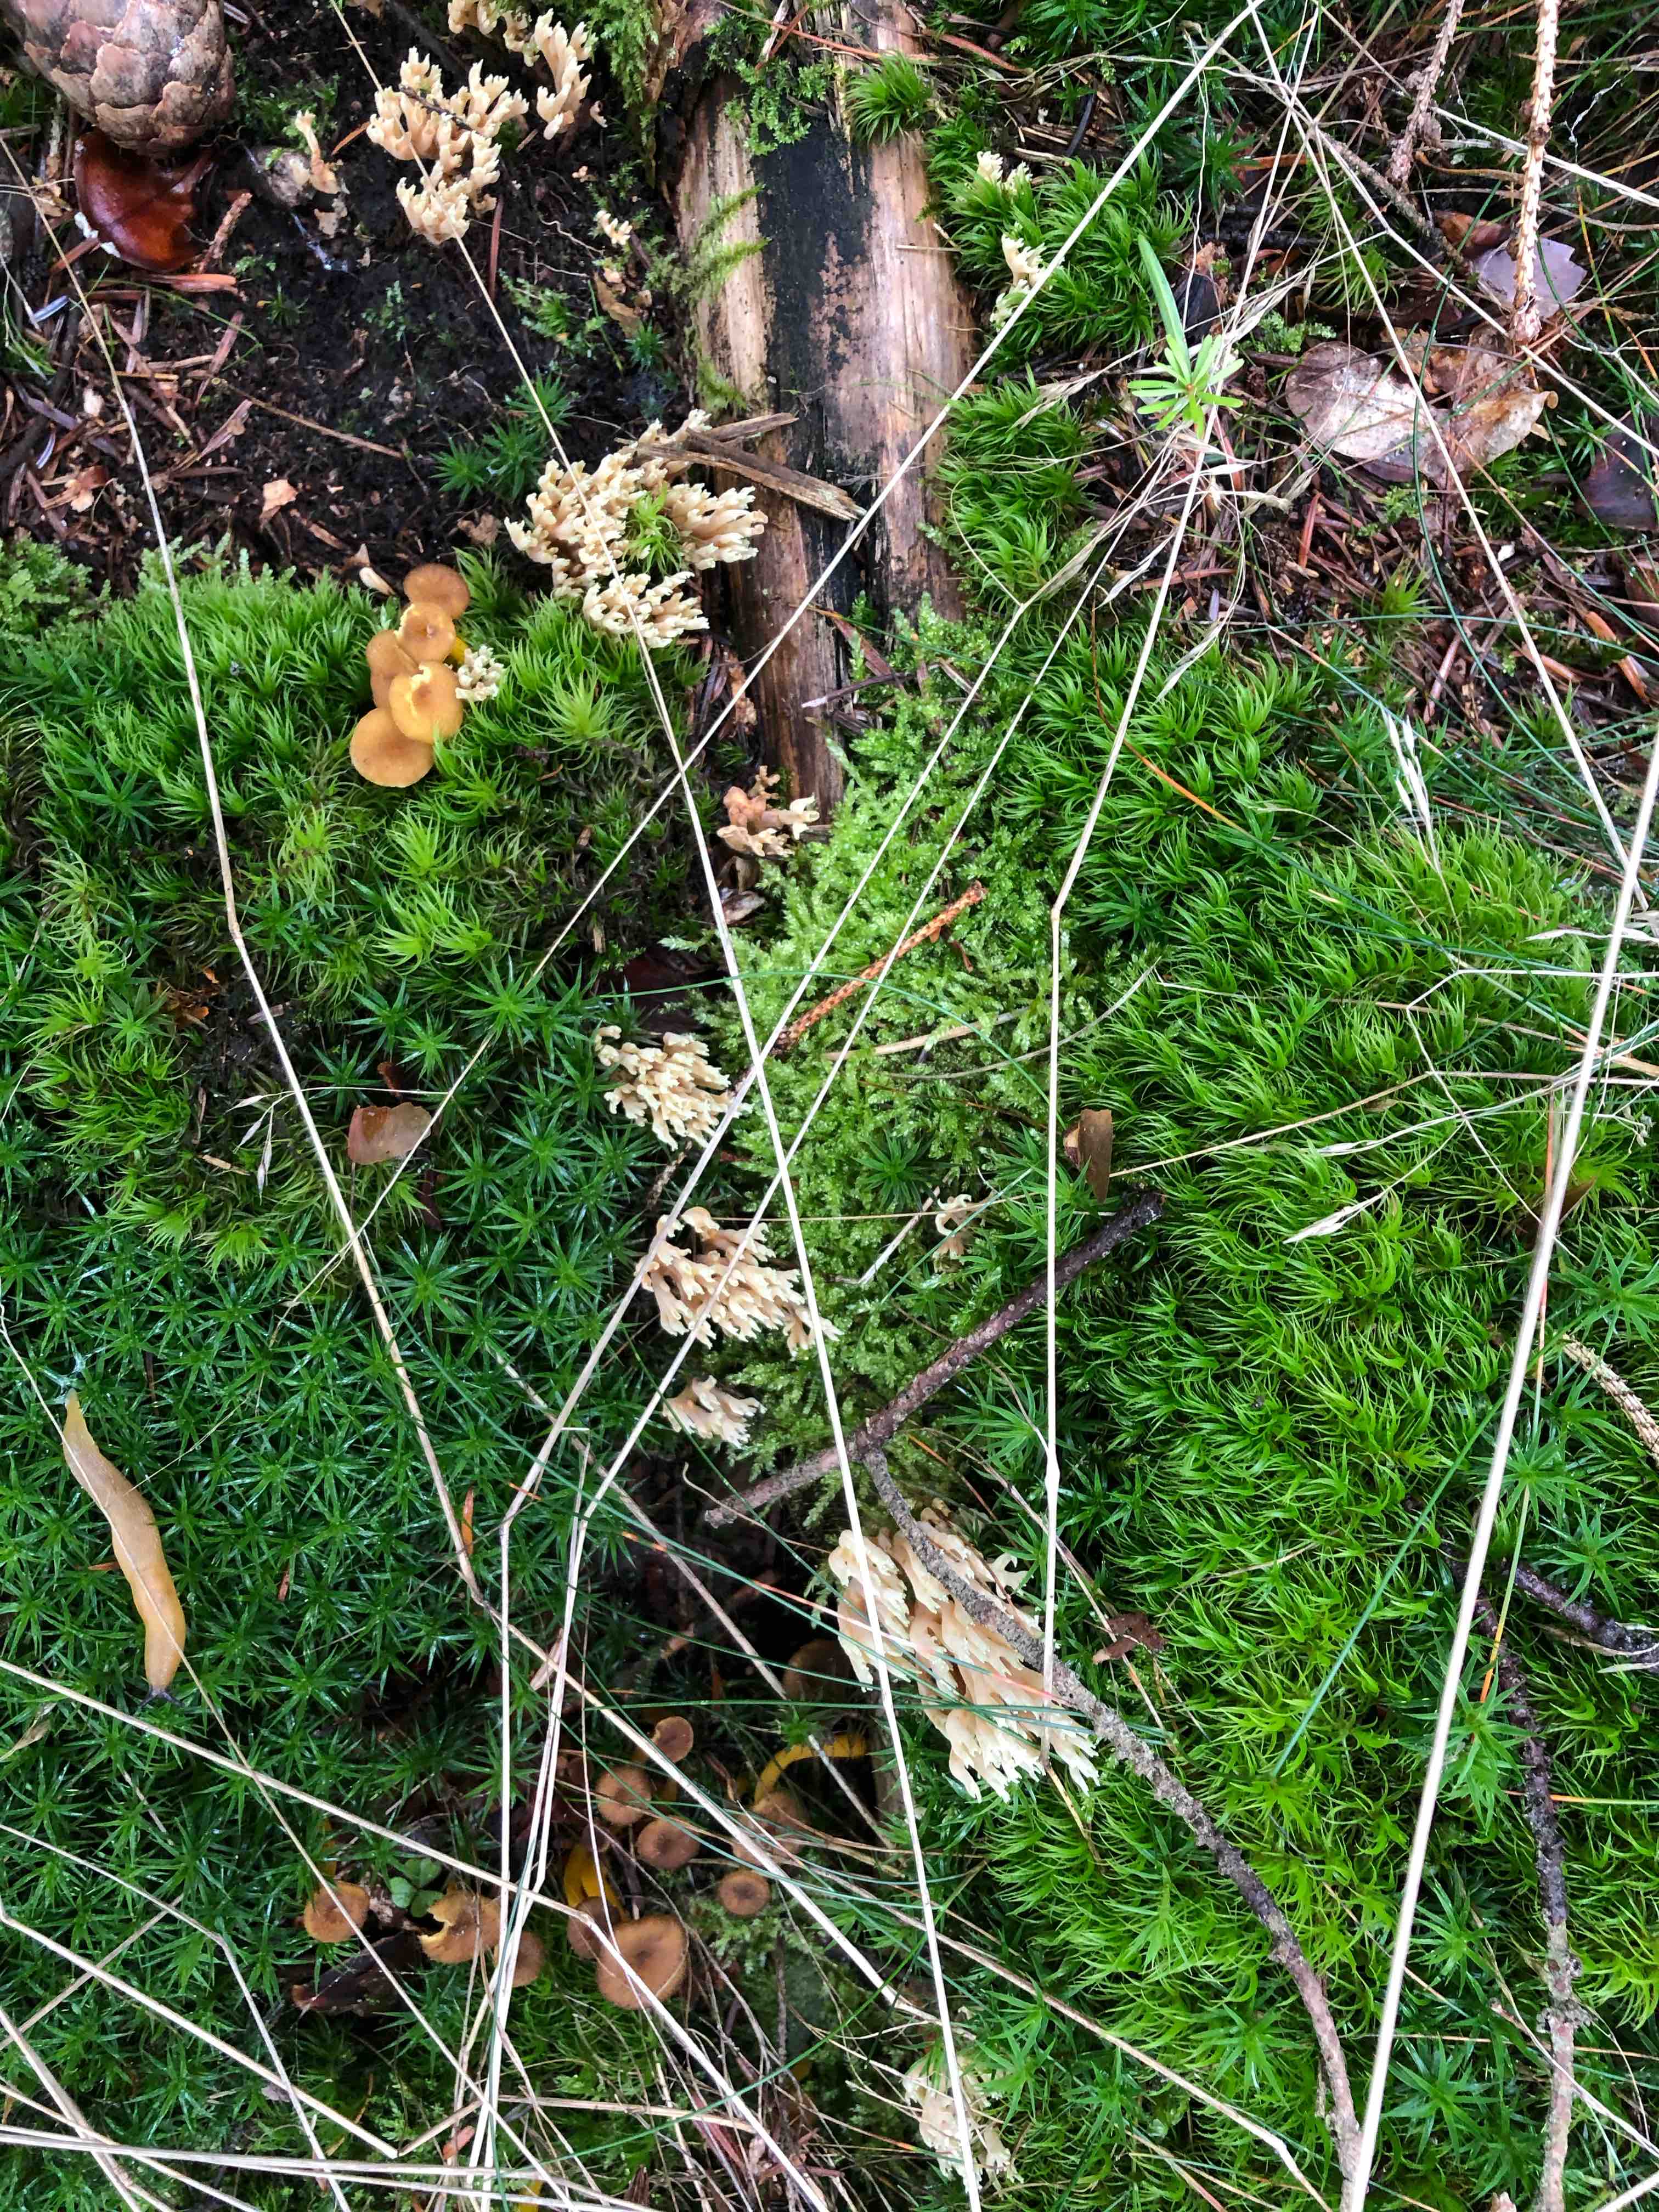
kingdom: Fungi
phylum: Basidiomycota
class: Agaricomycetes
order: Gomphales
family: Gomphaceae
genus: Ramaria
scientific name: Ramaria stricta
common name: rank koralsvamp
